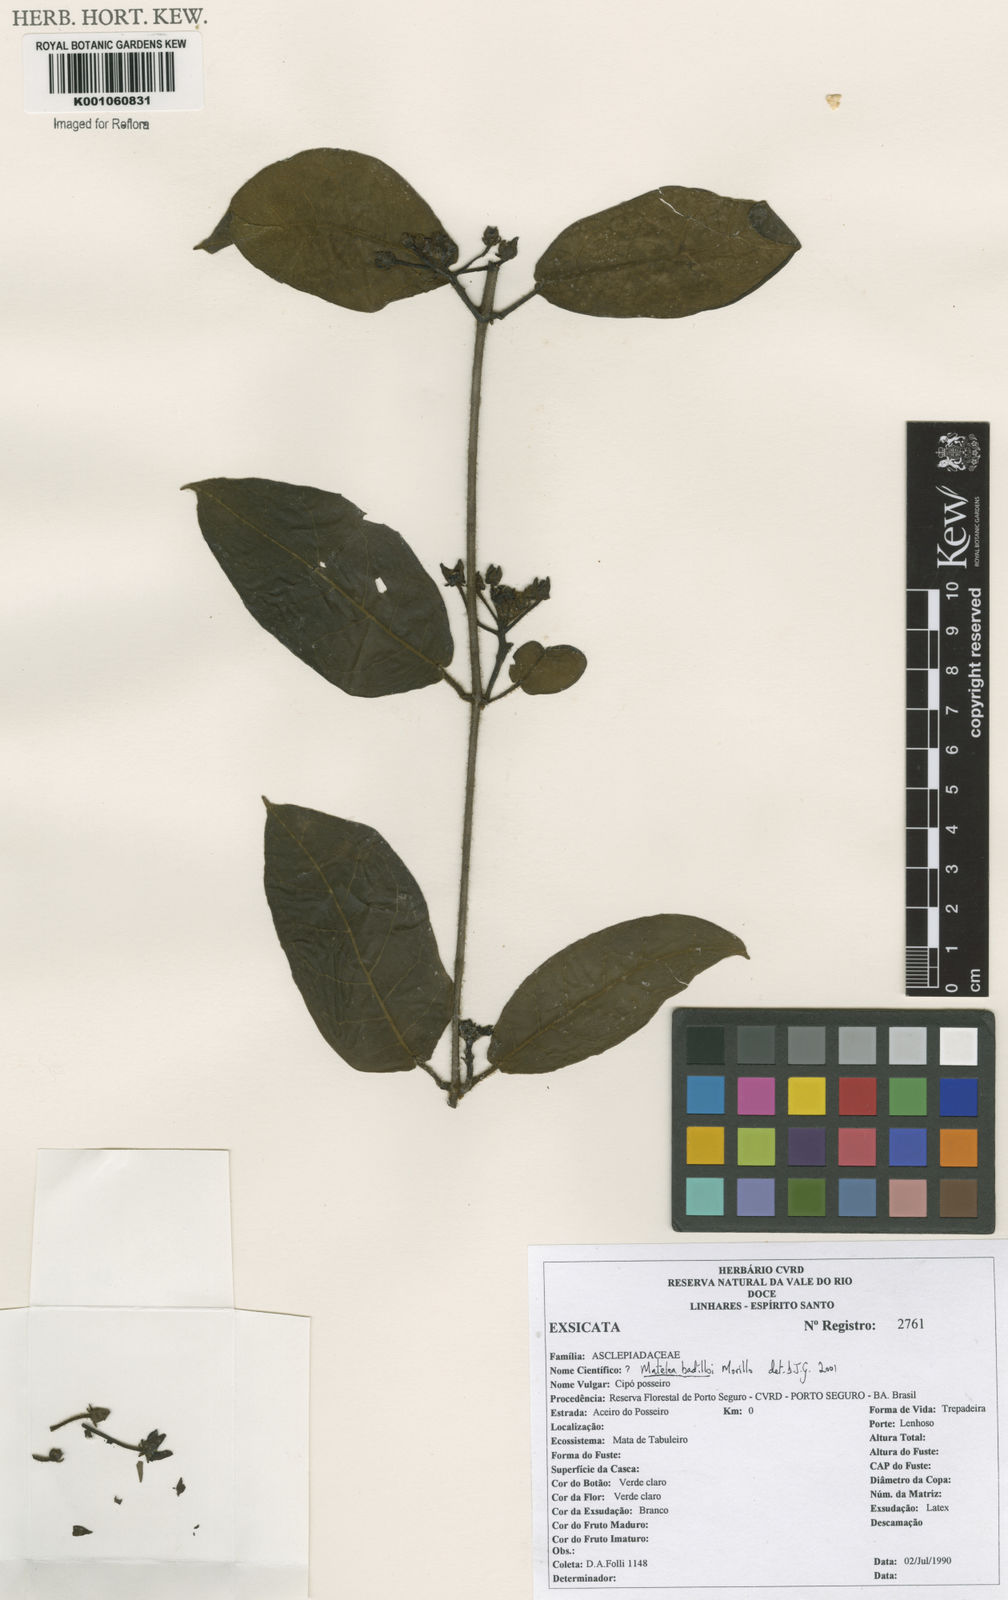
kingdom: Plantae
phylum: Tracheophyta
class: Magnoliopsida
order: Gentianales
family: Apocynaceae
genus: Rhytidostemma
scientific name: Rhytidostemma badilloi
